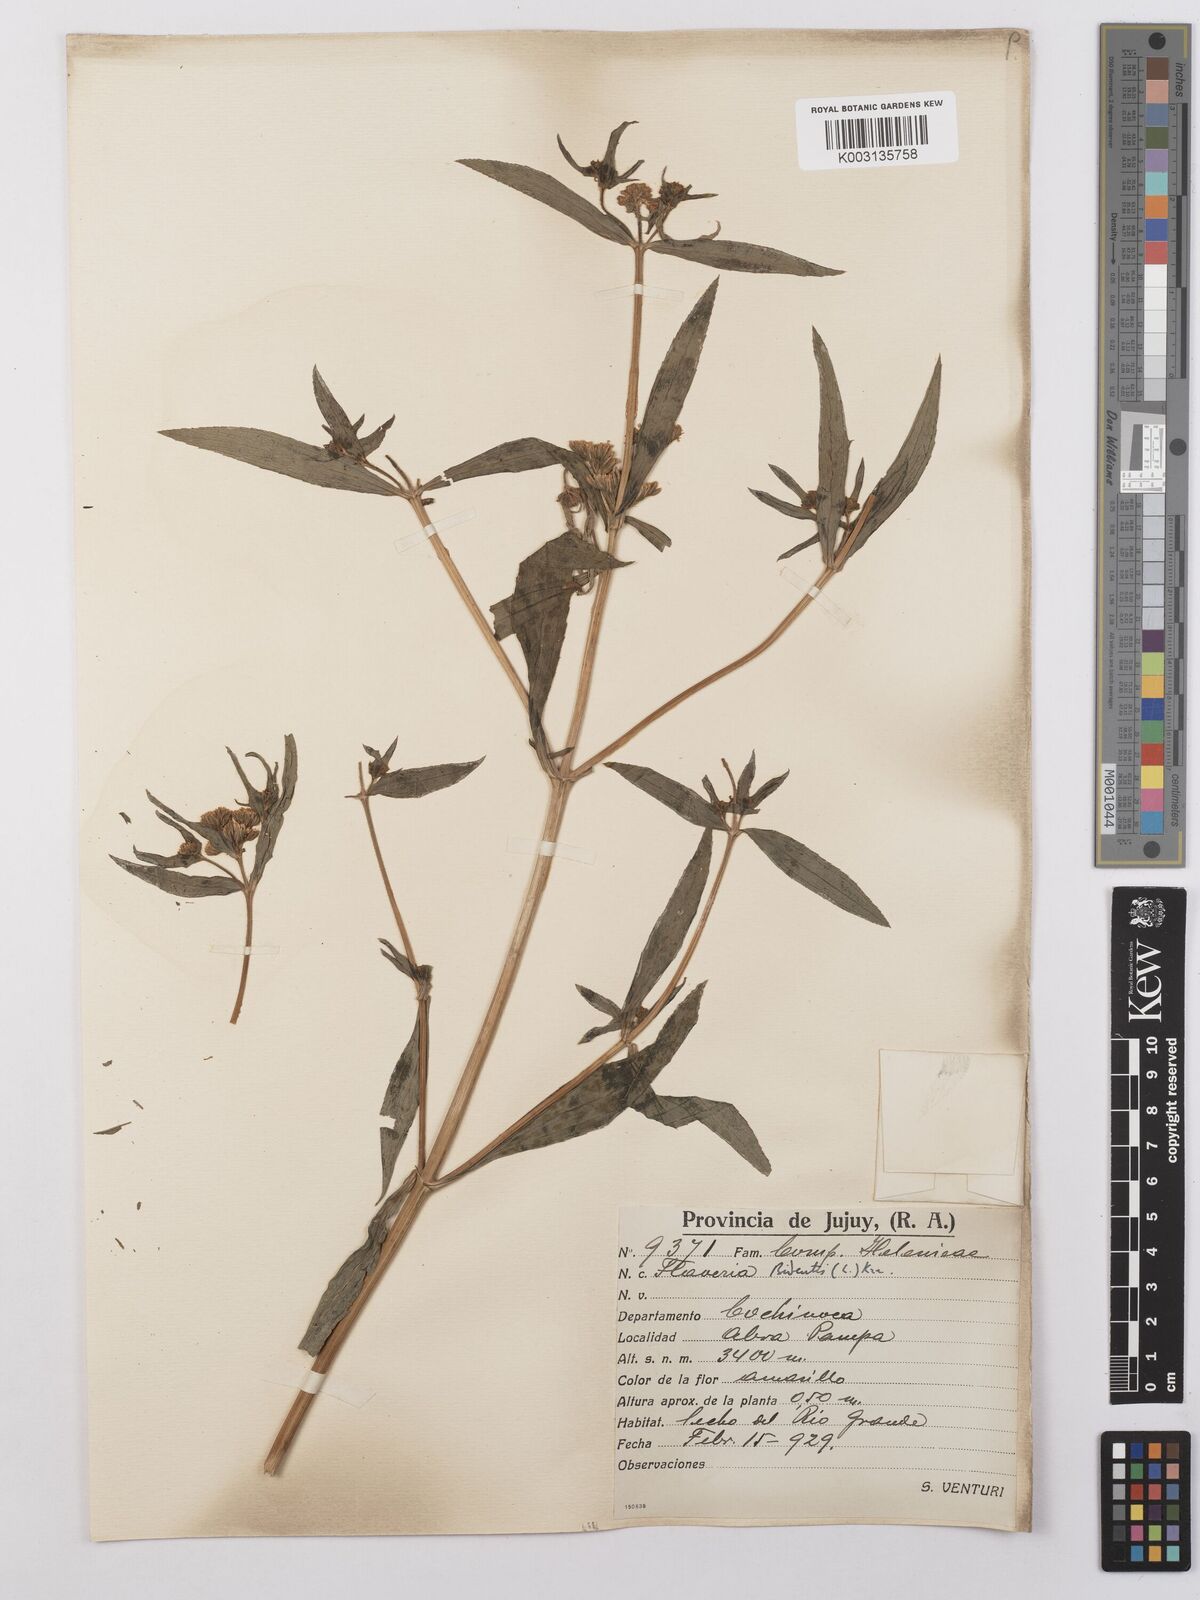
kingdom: Plantae
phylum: Tracheophyta
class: Magnoliopsida
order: Asterales
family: Asteraceae
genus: Flaveria
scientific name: Flaveria bidentis
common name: Coastal plain yellowtops
